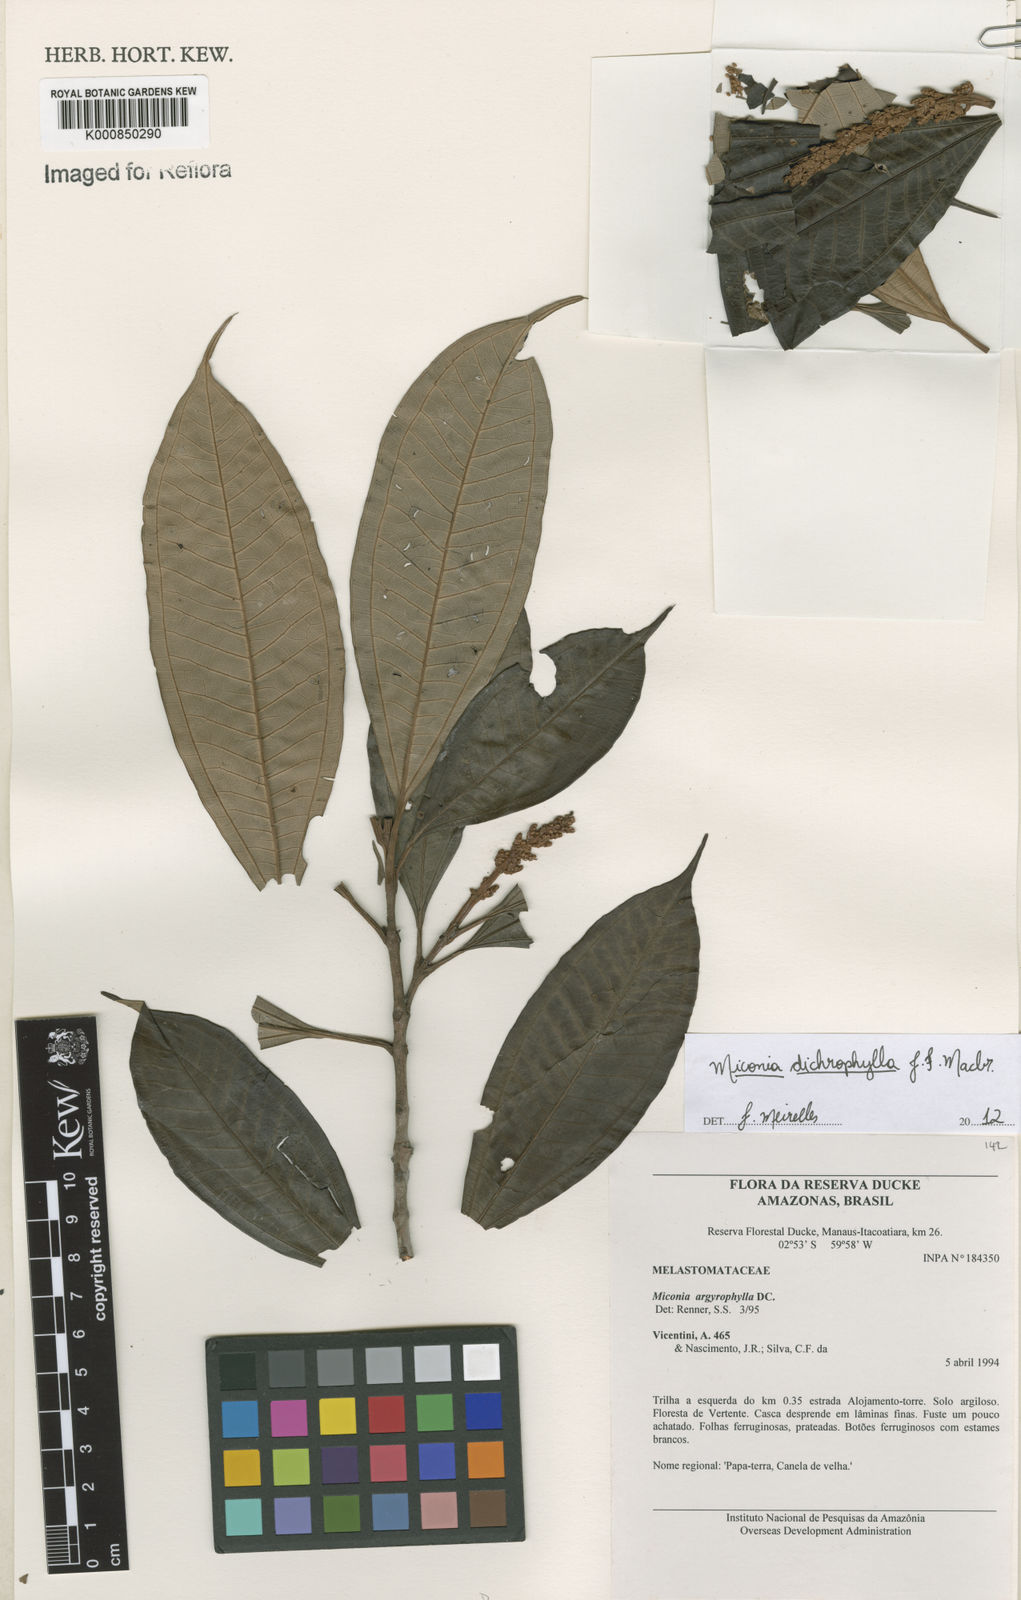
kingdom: Plantae
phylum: Tracheophyta
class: Magnoliopsida
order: Myrtales
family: Melastomataceae
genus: Miconia
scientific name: Miconia
